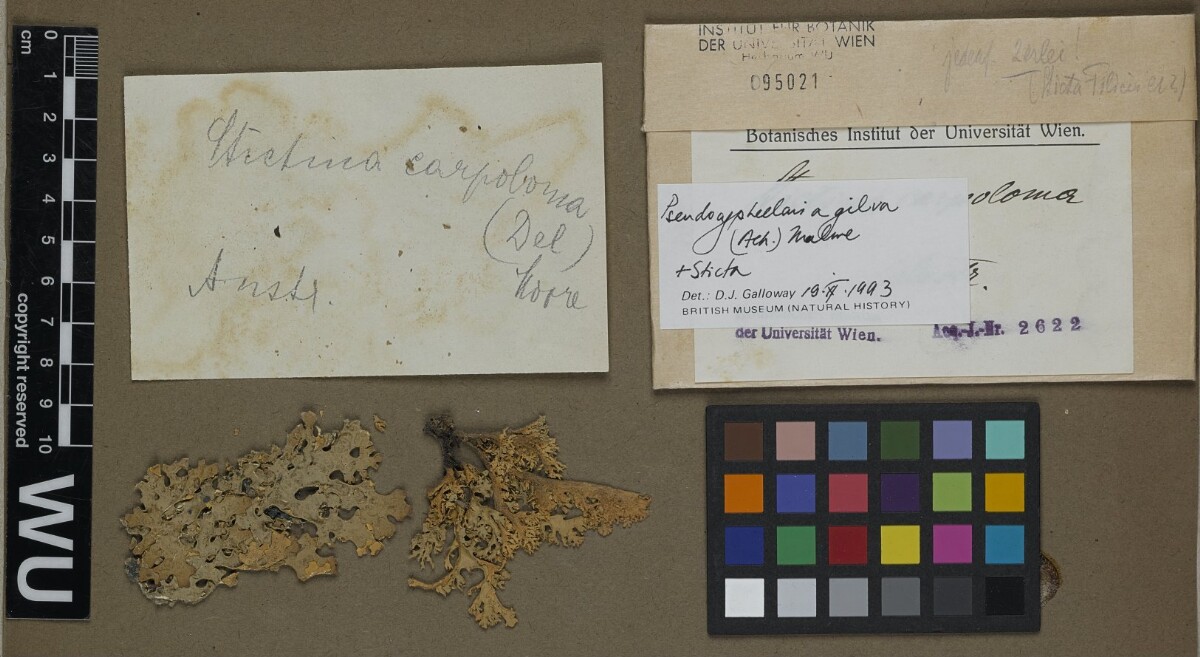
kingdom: Fungi
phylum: Ascomycota
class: Lecanoromycetes
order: Peltigerales
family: Lobariaceae
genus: Pseudocyphellaria
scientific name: Pseudocyphellaria gilva
